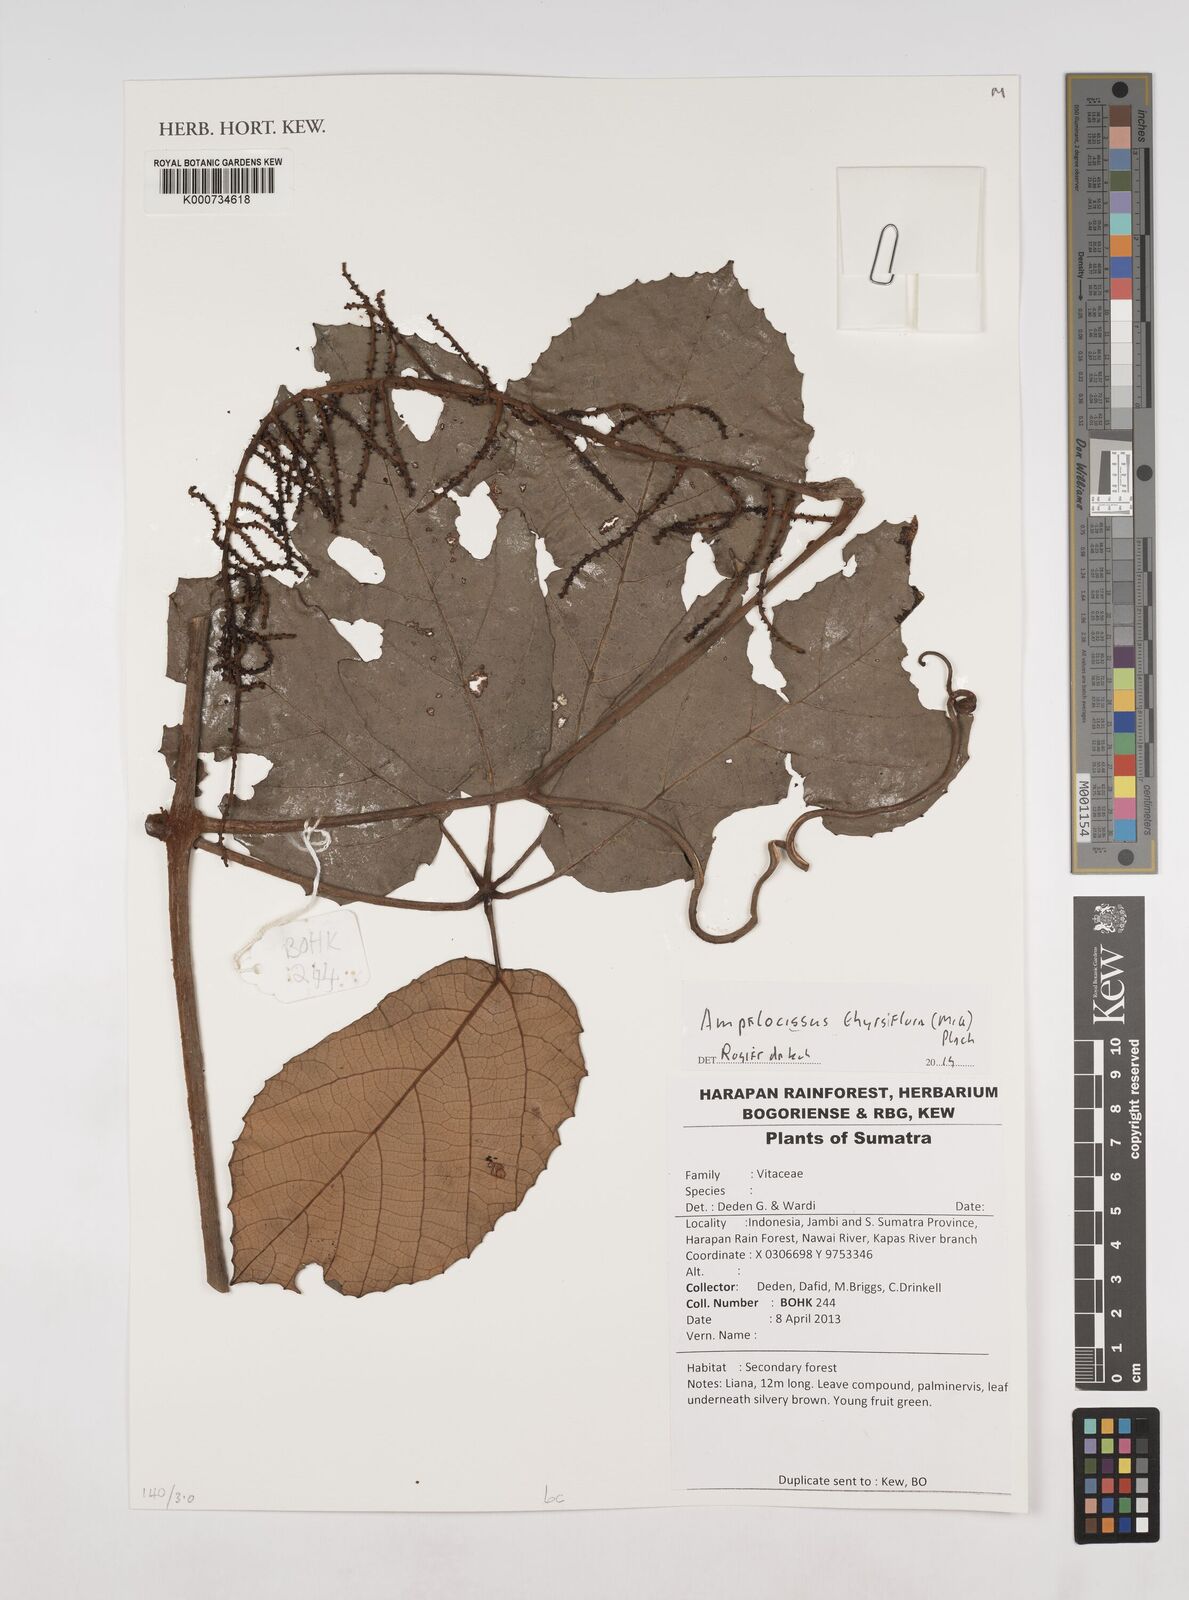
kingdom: Plantae
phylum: Tracheophyta
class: Magnoliopsida
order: Vitales
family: Vitaceae
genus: Ampelocissus
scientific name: Ampelocissus thyrsiflora
